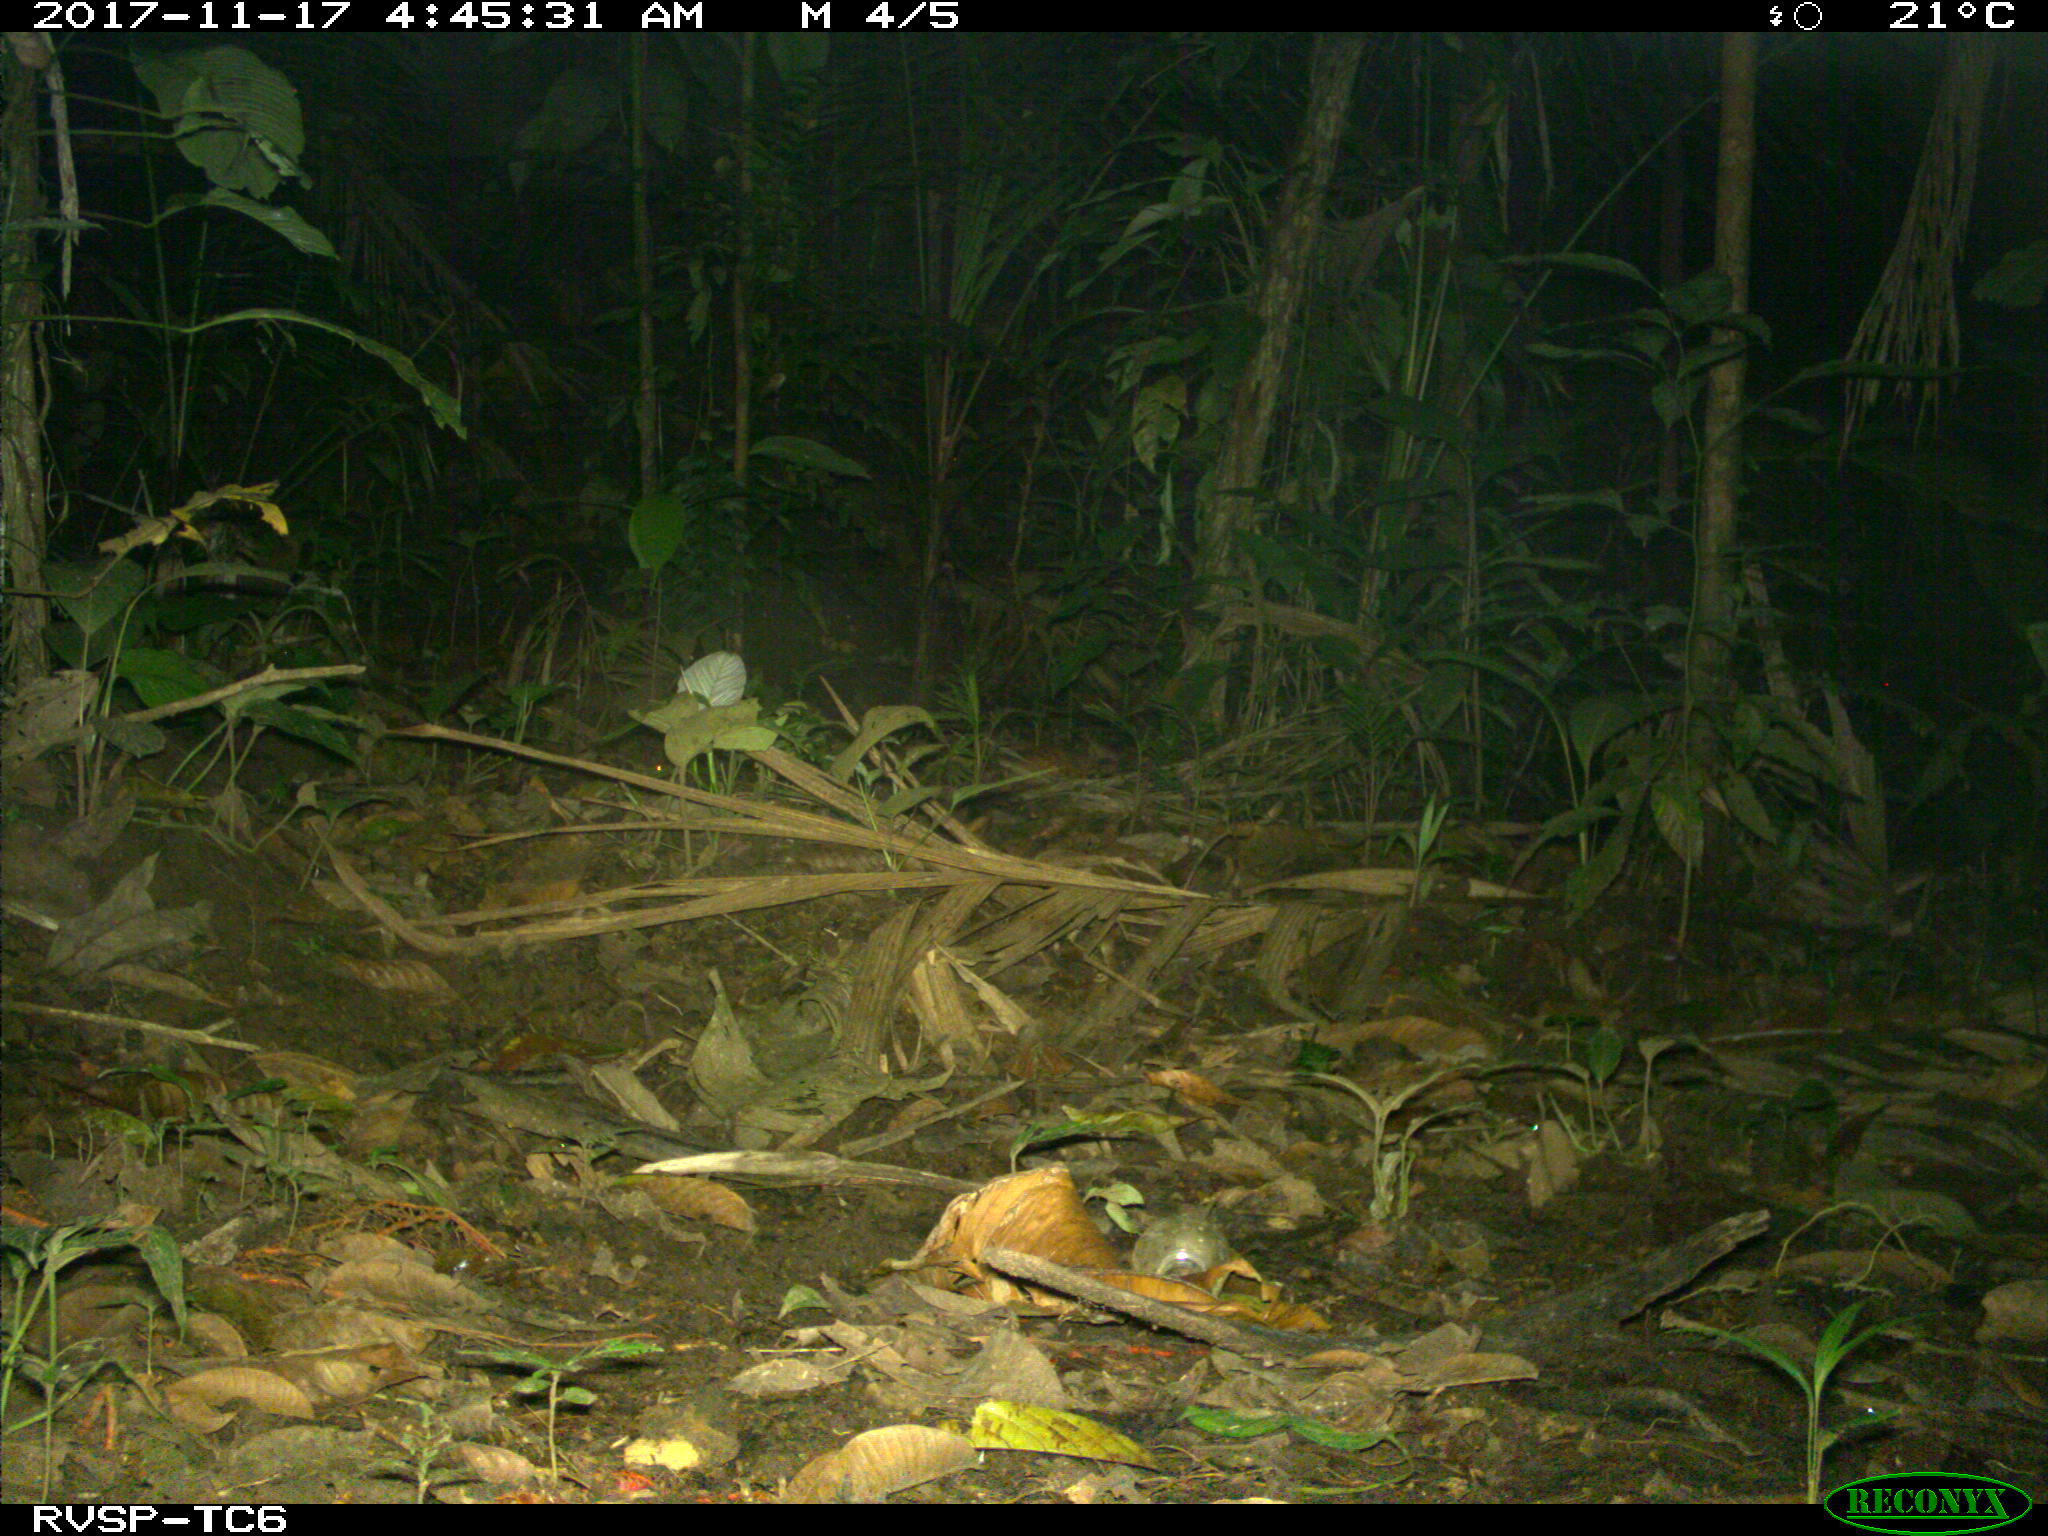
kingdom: Animalia
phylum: Chordata
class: Mammalia
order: Rodentia
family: Echimyidae
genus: Proechimys
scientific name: Proechimys
